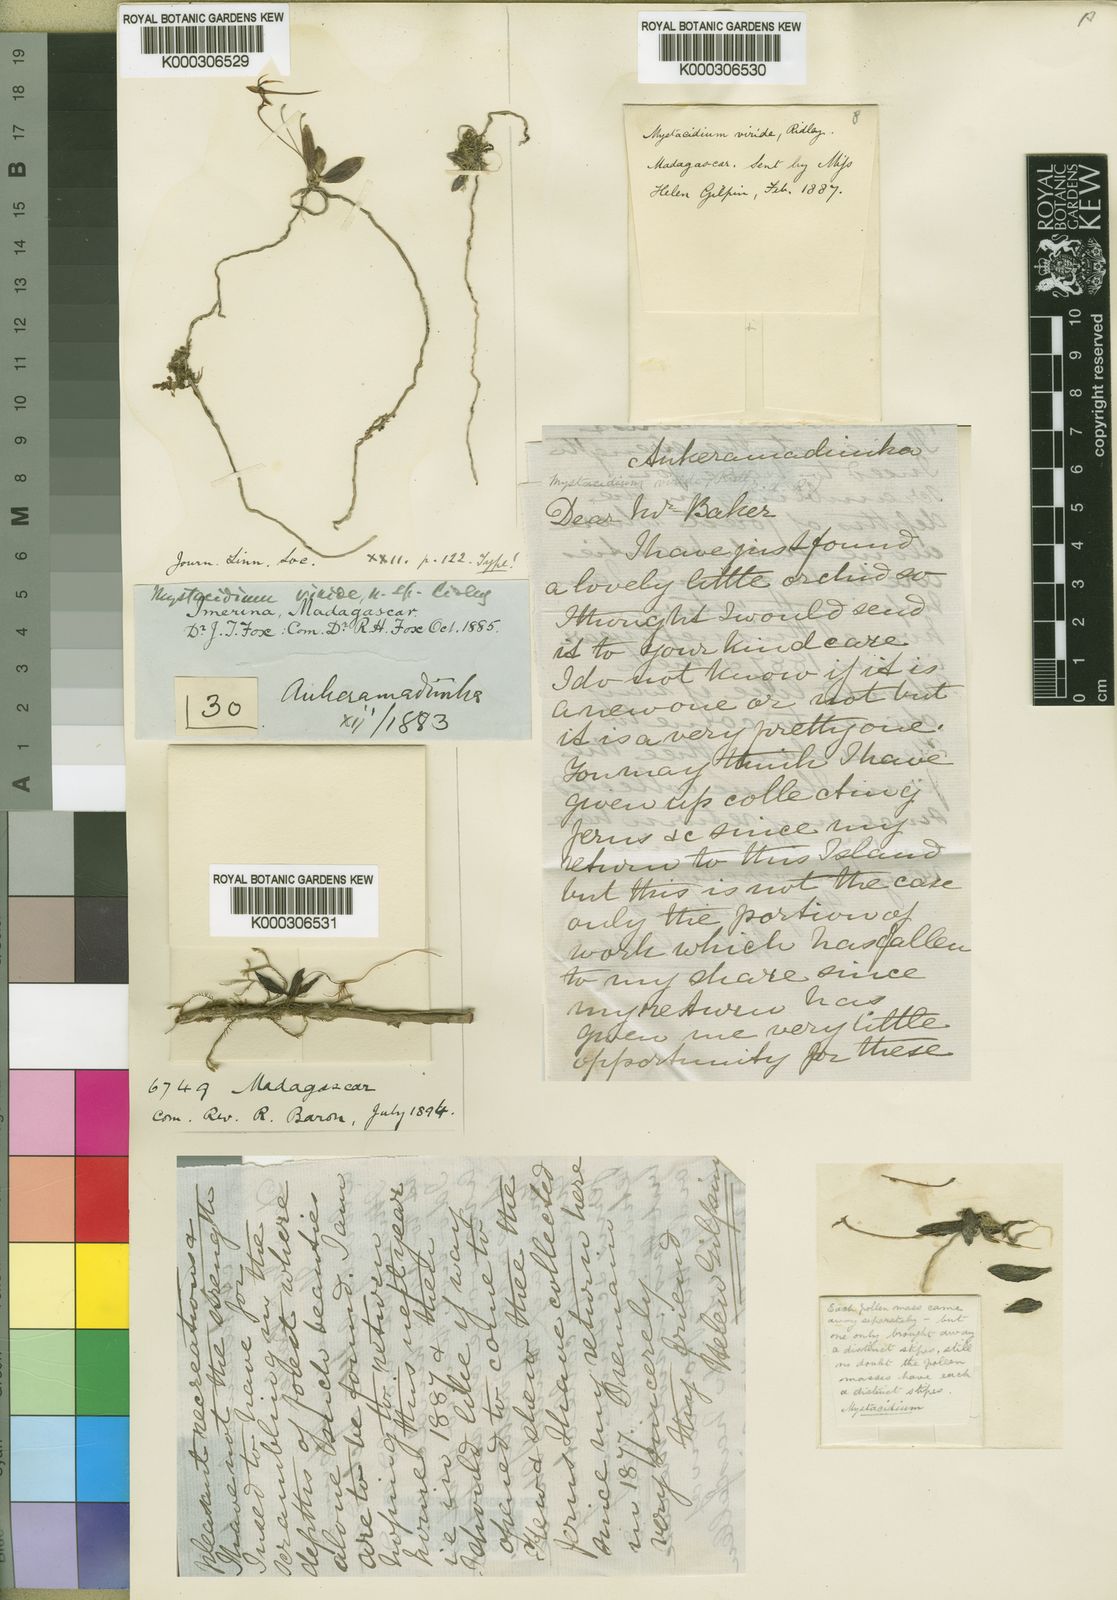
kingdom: Plantae
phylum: Tracheophyta
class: Liliopsida
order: Asparagales
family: Orchidaceae
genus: Angraecum
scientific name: Angraecum rhynchoglossum
